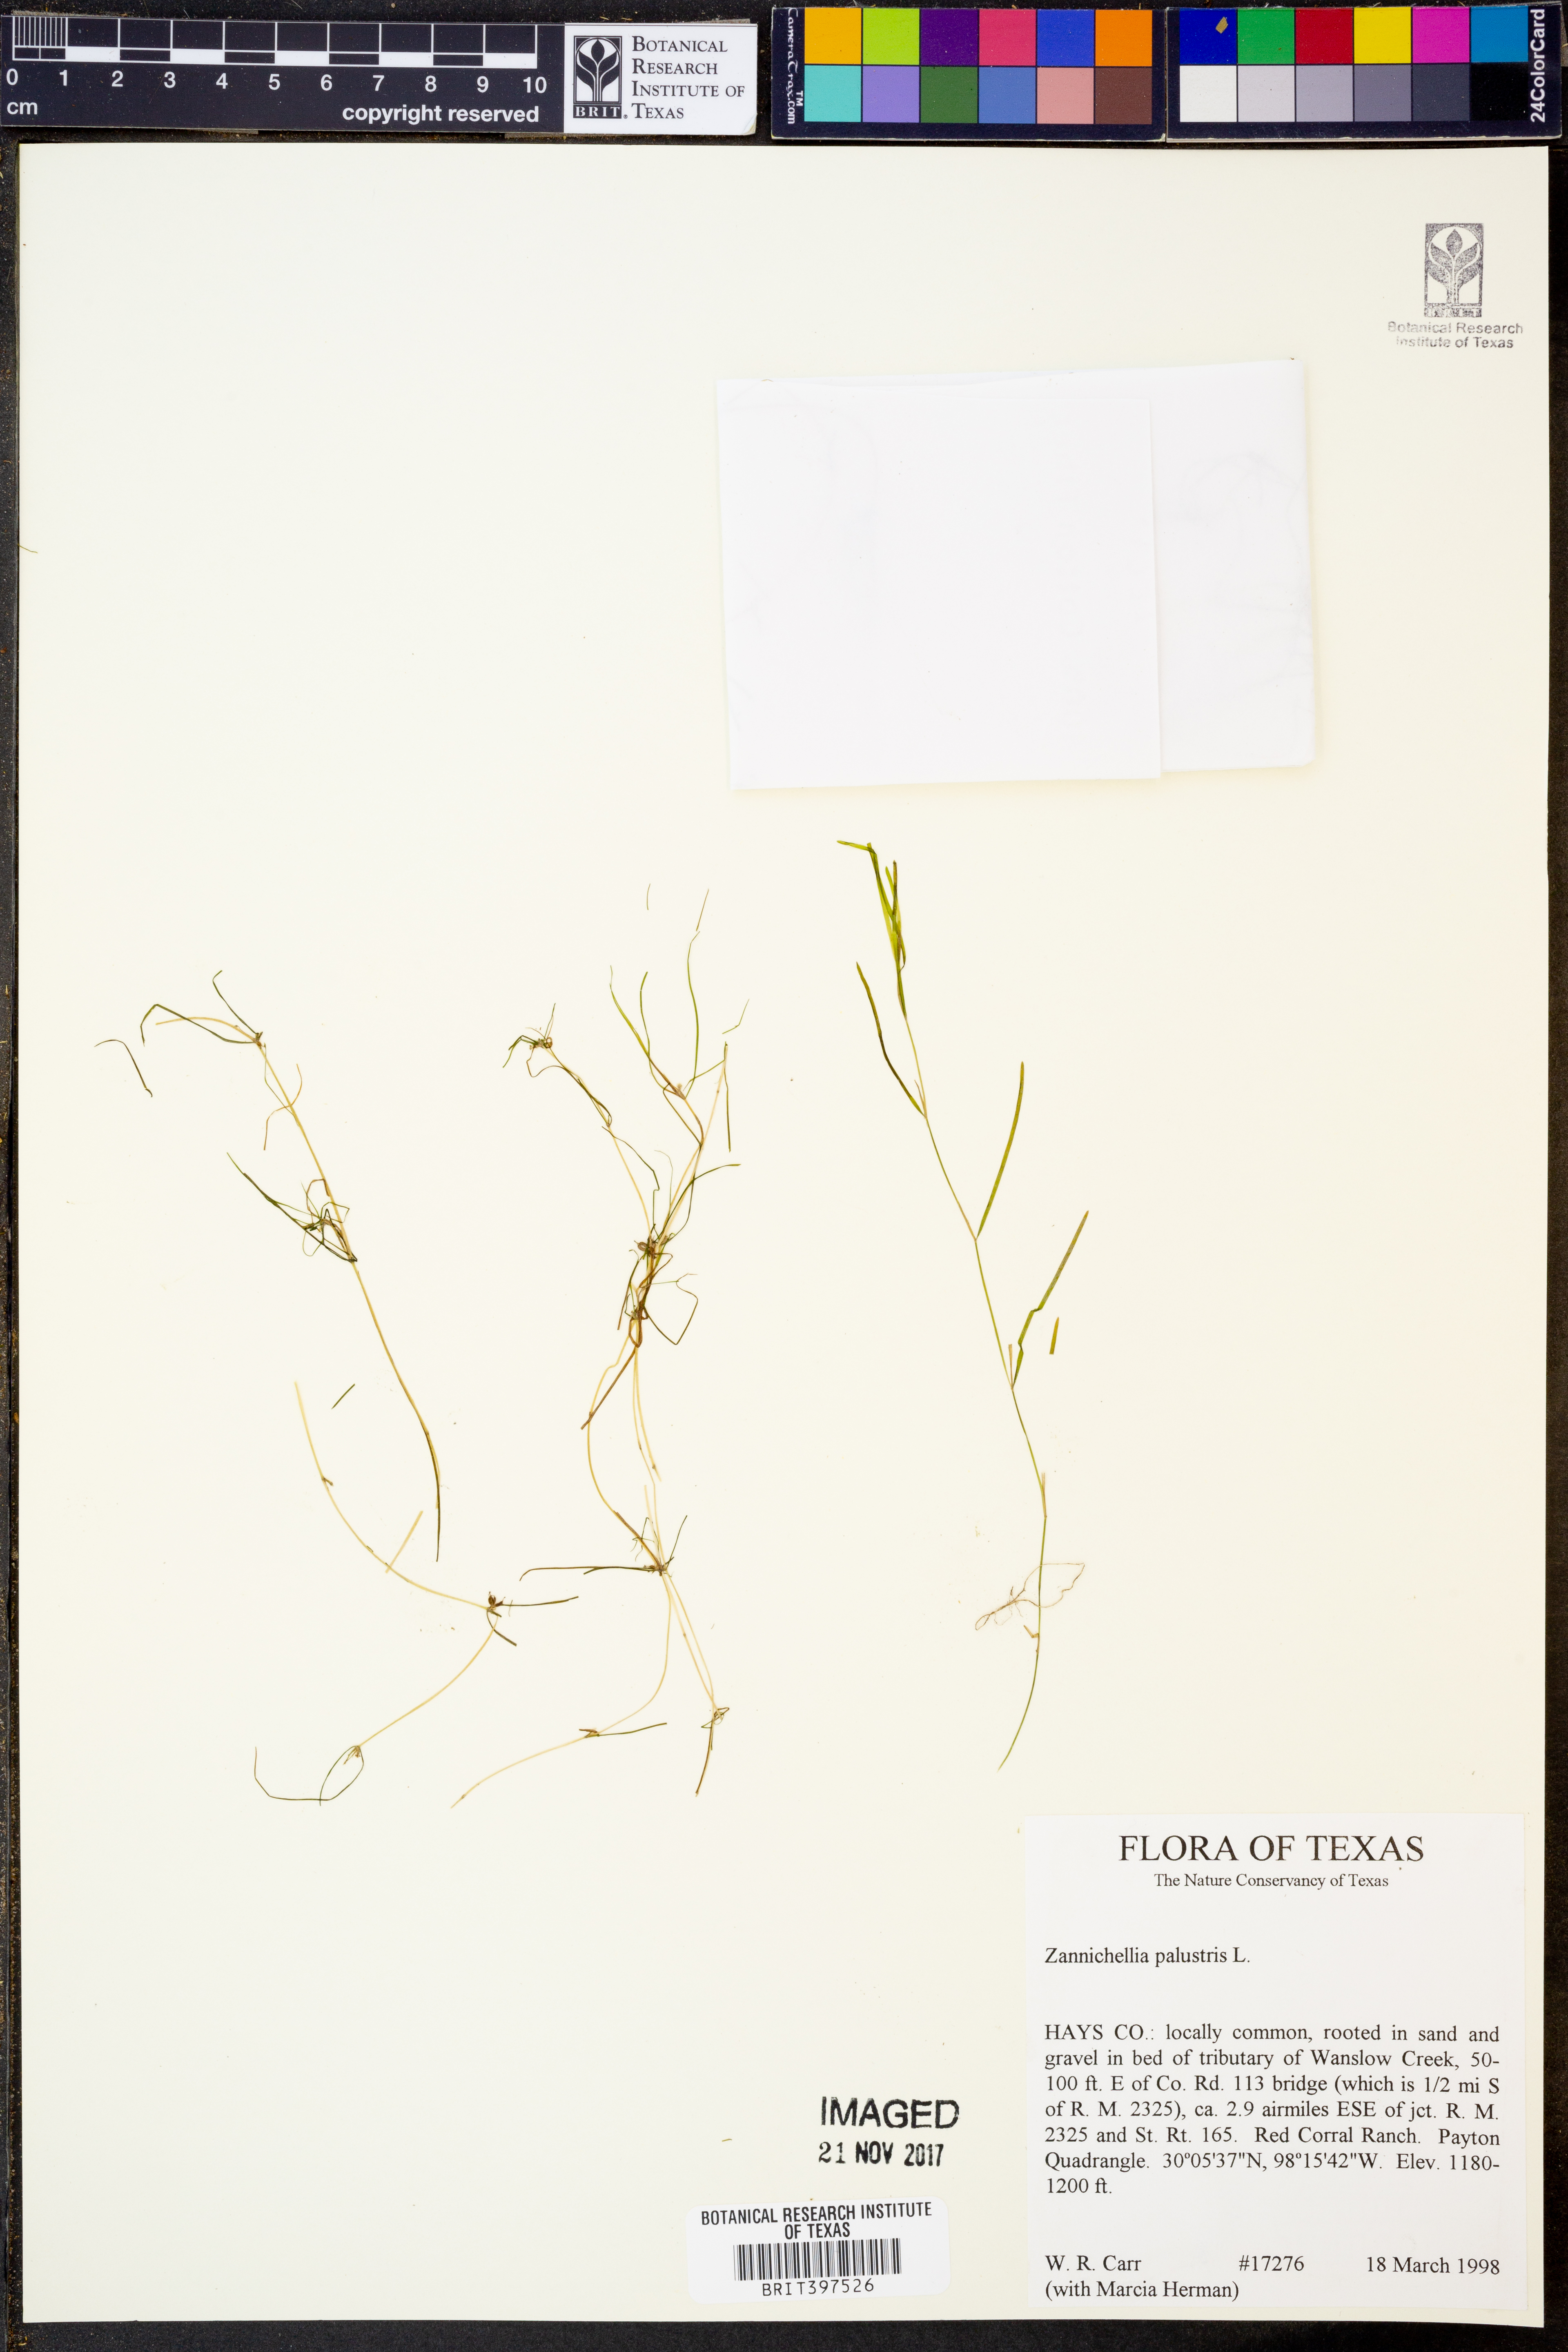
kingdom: Plantae
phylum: Tracheophyta
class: Liliopsida
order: Alismatales
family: Potamogetonaceae
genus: Zannichellia
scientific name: Zannichellia palustris
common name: Horned pondweed
